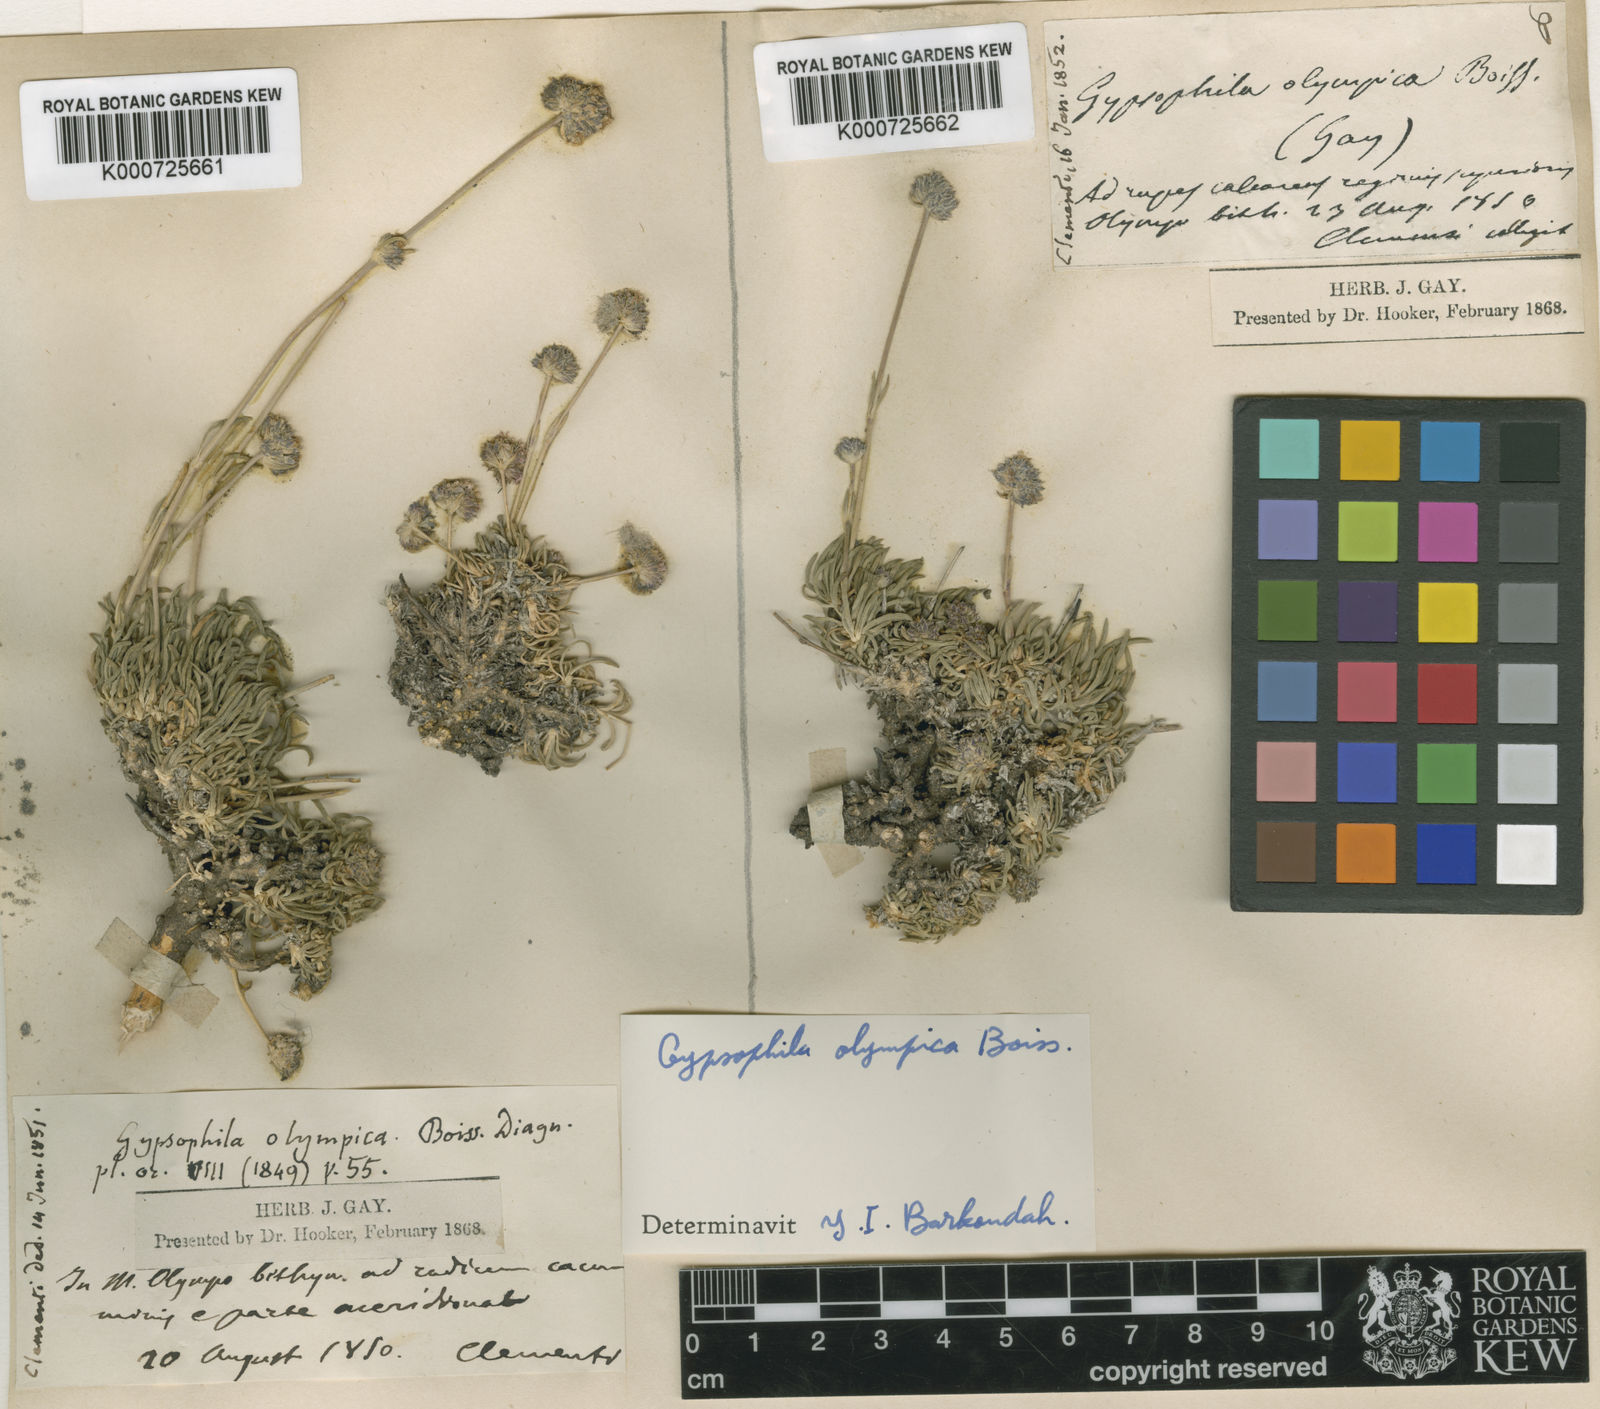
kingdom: Plantae
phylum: Tracheophyta
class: Magnoliopsida
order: Caryophyllales
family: Caryophyllaceae
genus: Gypsophila
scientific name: Gypsophila olympica
